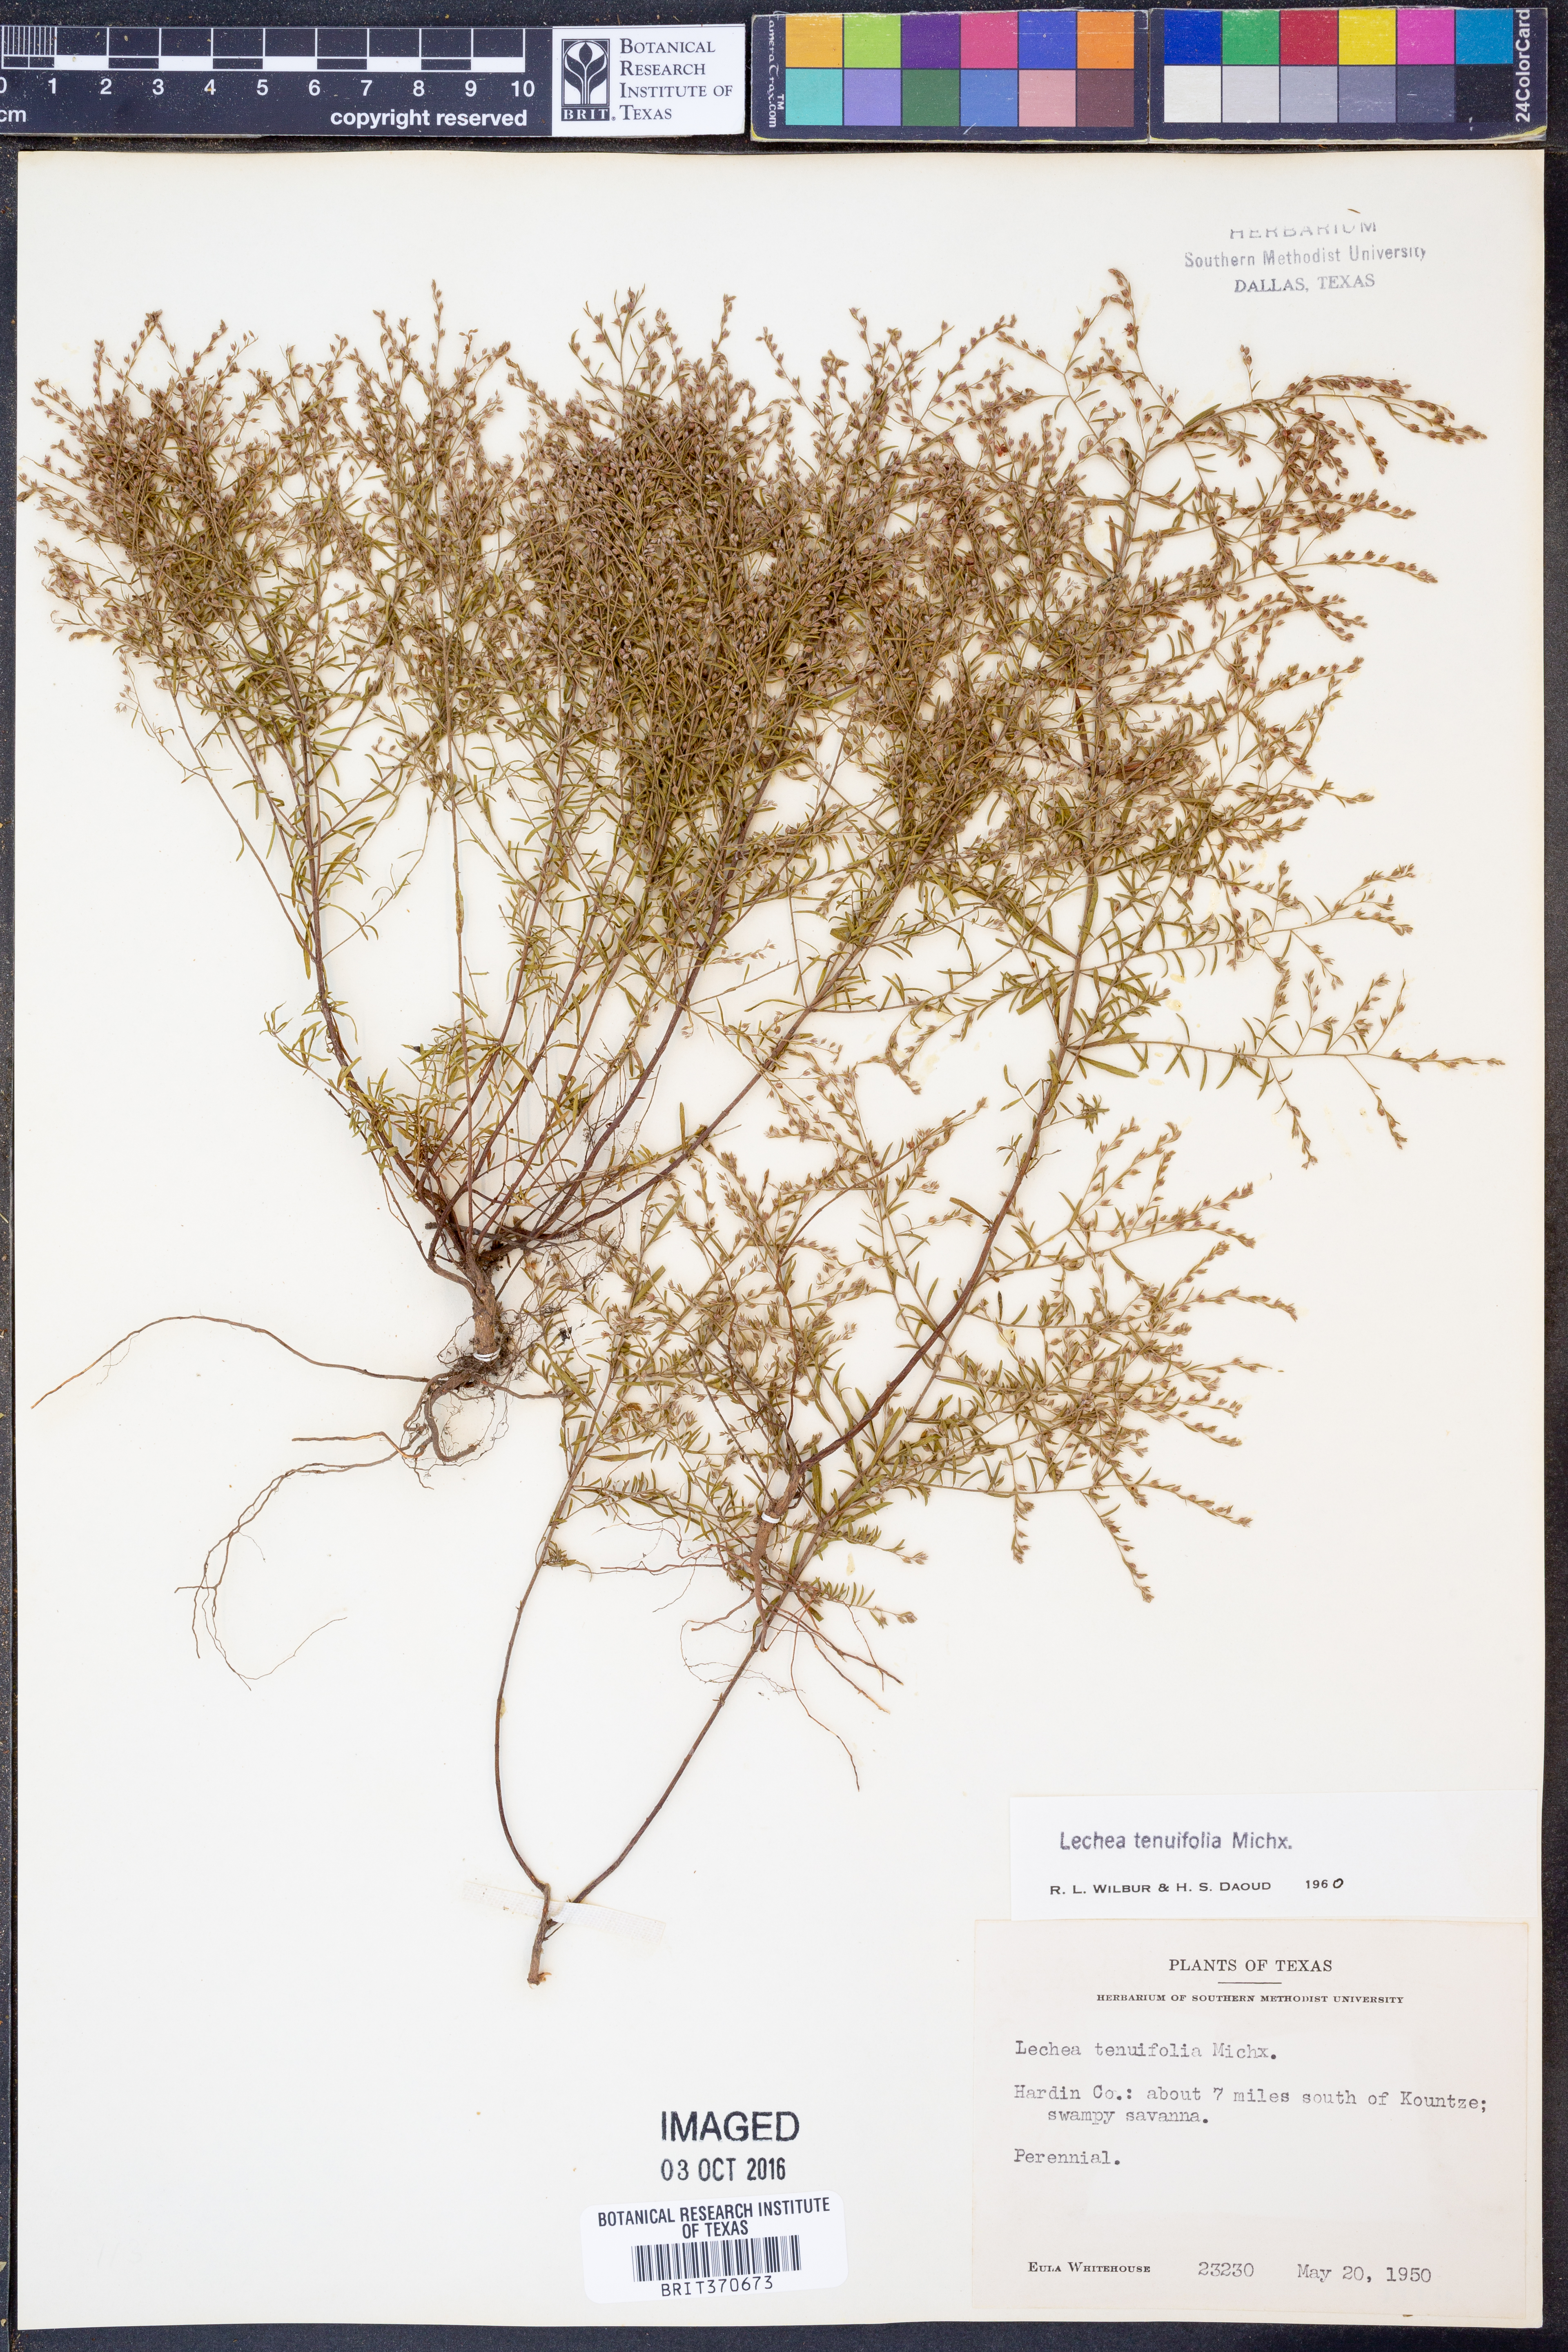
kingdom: Plantae
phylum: Tracheophyta
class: Magnoliopsida
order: Malvales
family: Cistaceae
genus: Lechea
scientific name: Lechea tenuifolia
